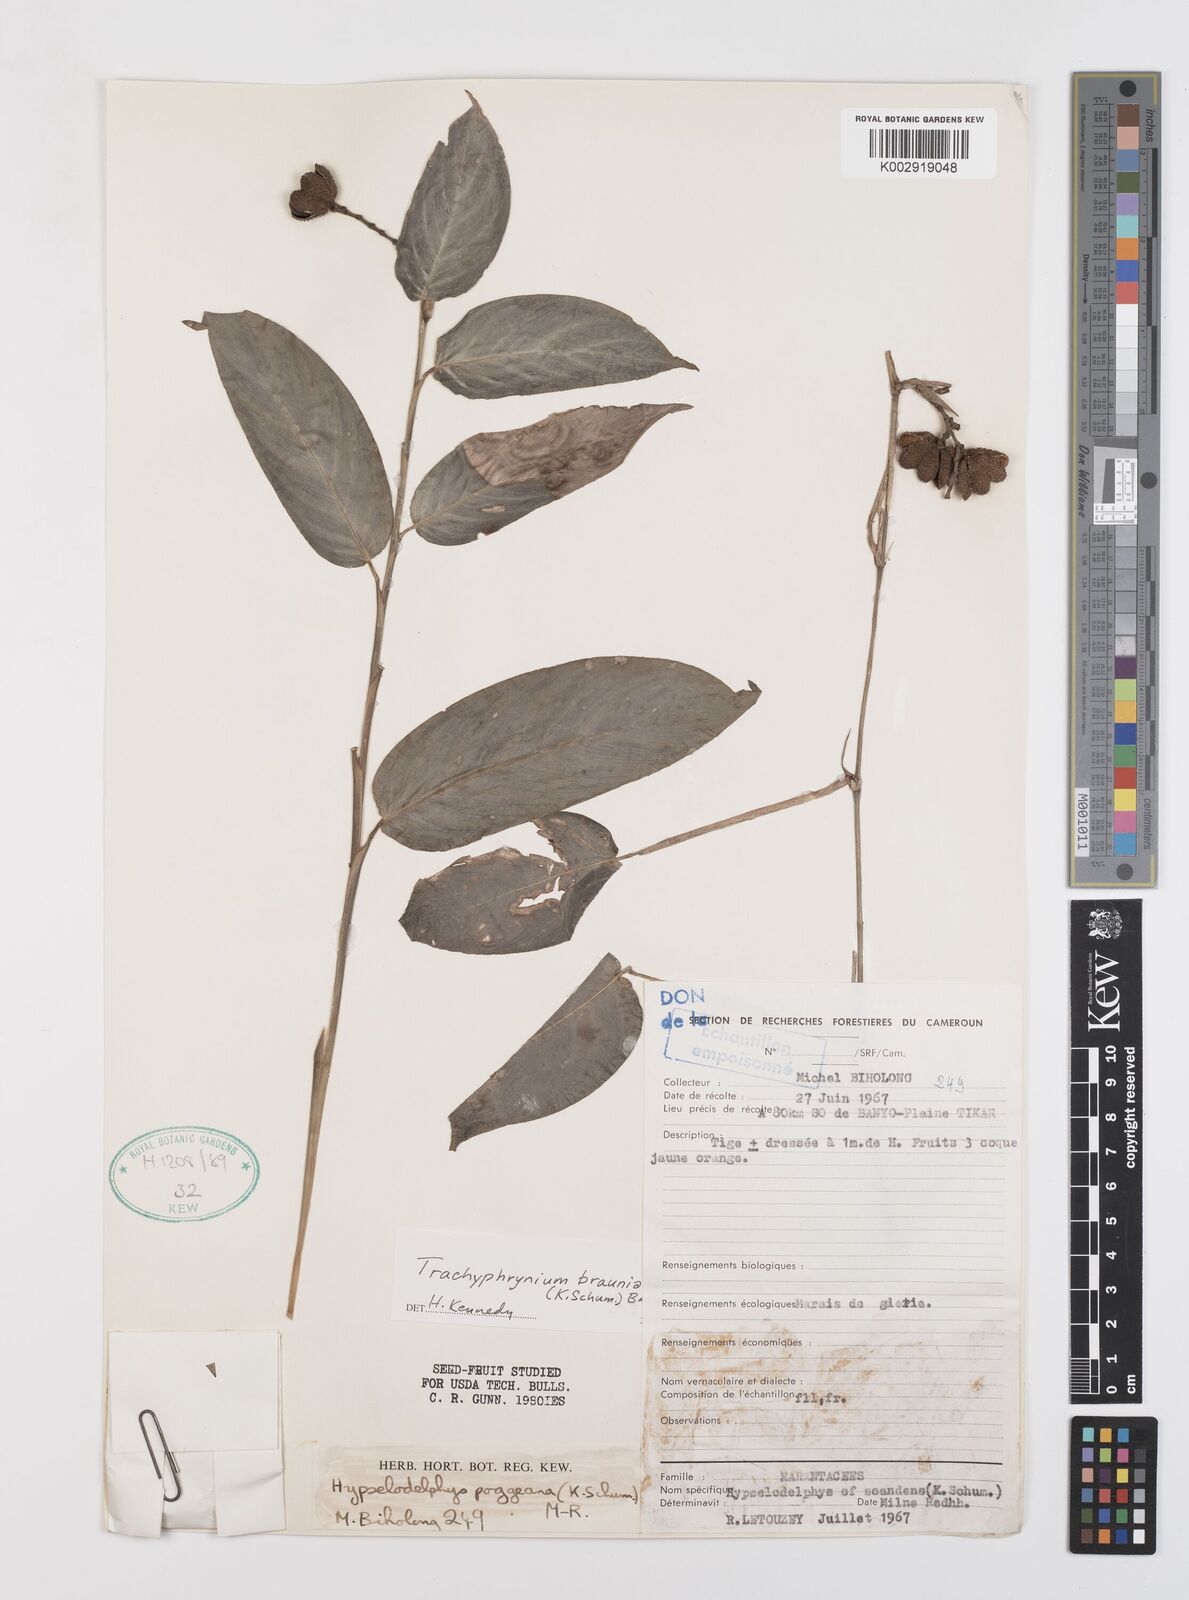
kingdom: Plantae
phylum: Tracheophyta
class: Liliopsida
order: Zingiberales
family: Marantaceae
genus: Trachyphrynium
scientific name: Trachyphrynium braunianum
